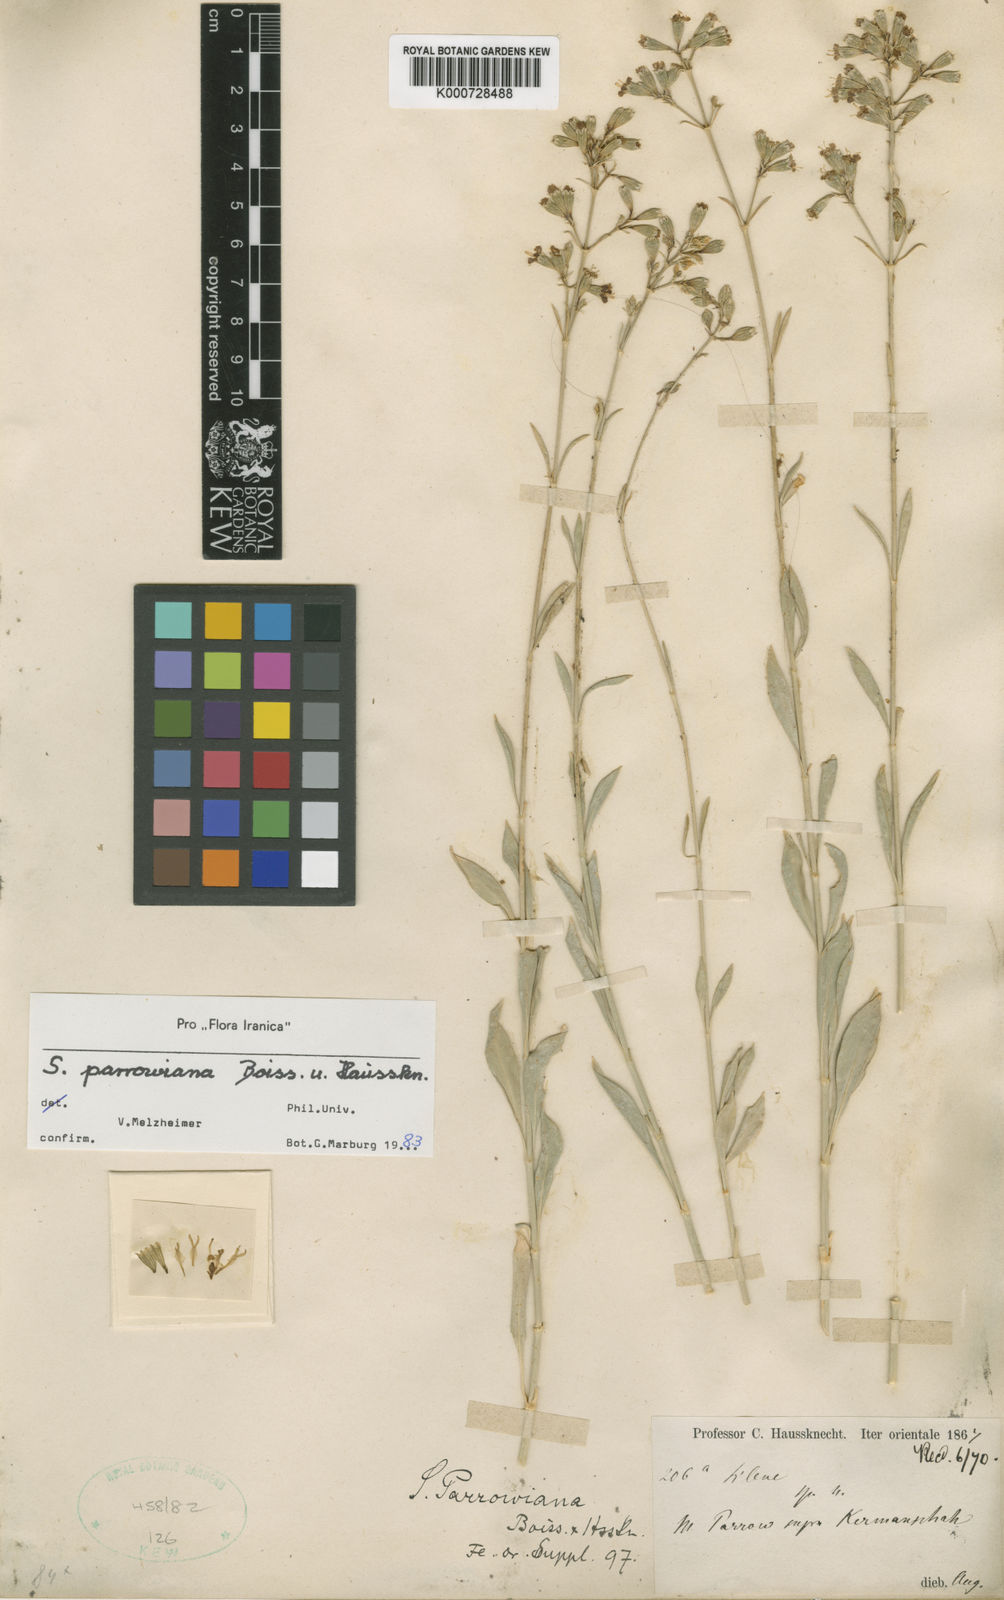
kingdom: Plantae
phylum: Tracheophyta
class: Magnoliopsida
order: Caryophyllales
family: Caryophyllaceae
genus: Silene
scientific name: Silene parrowiana
